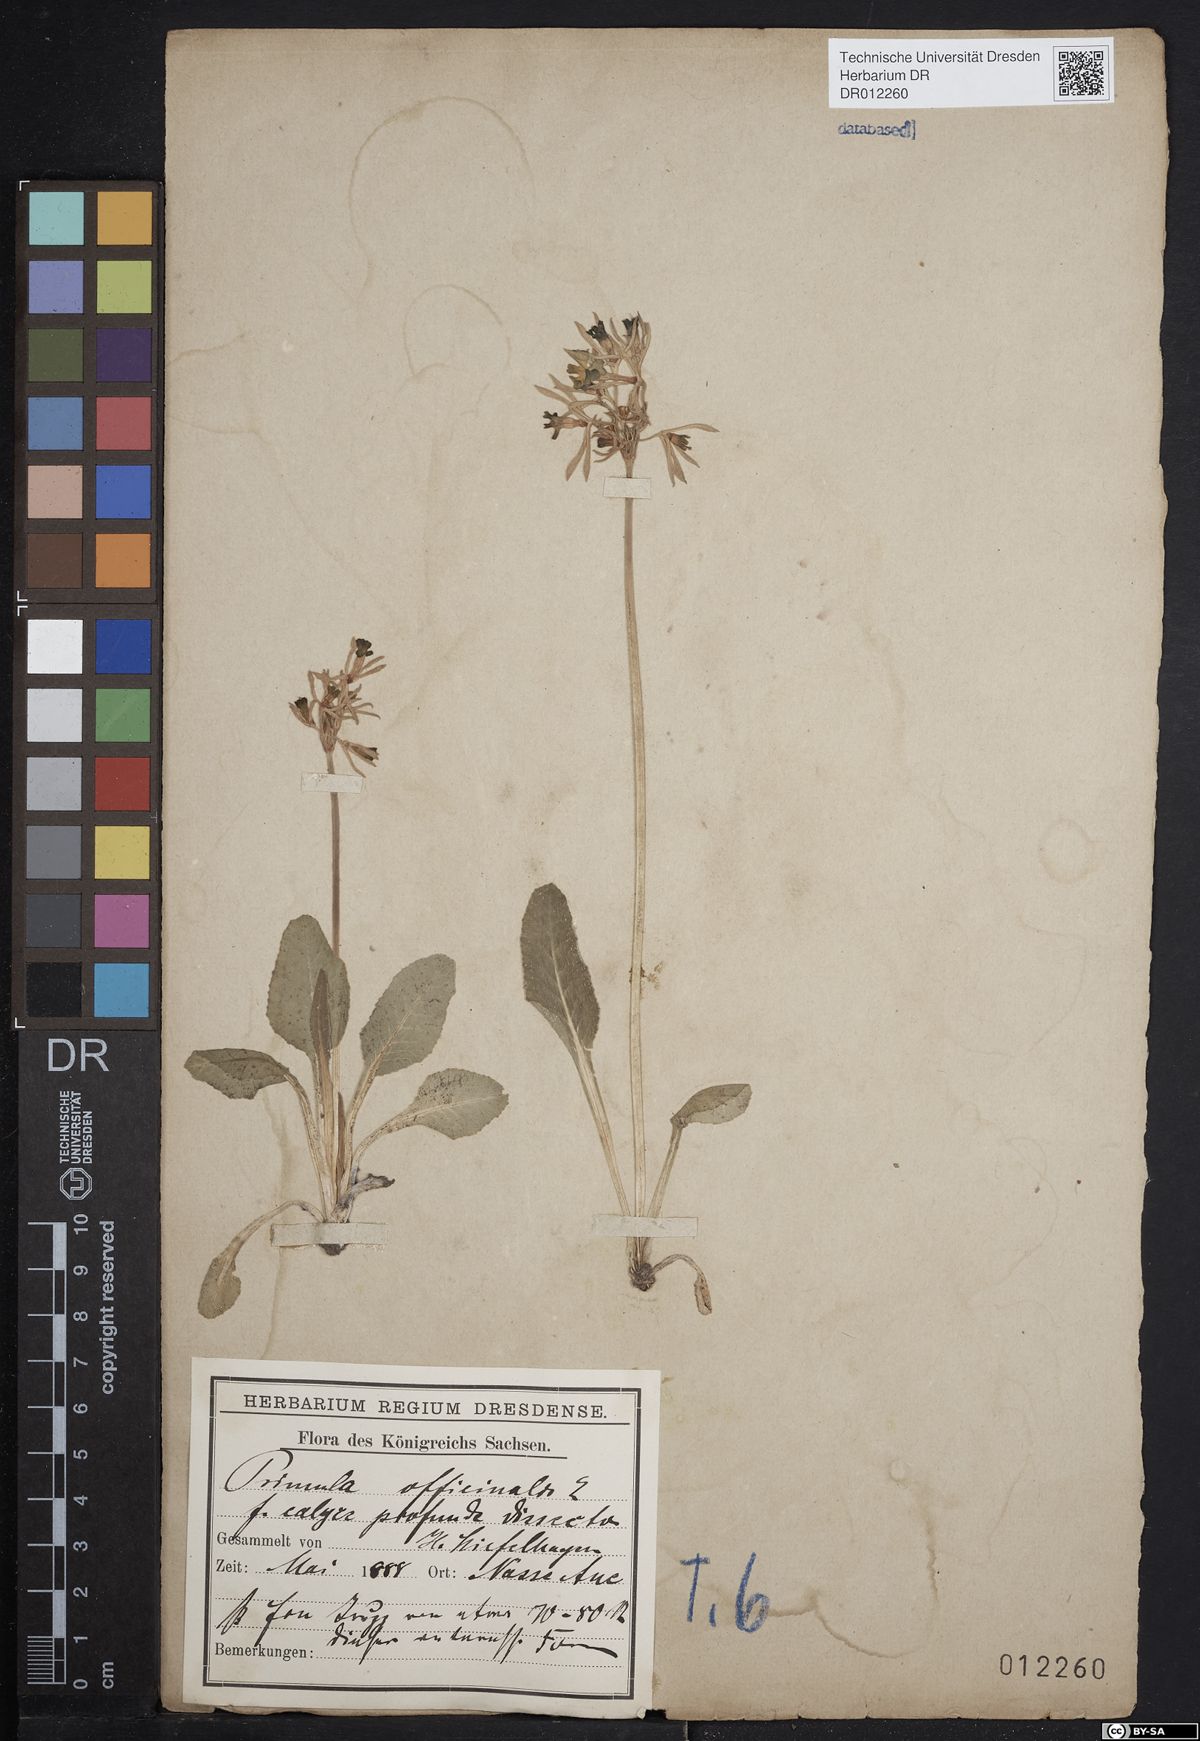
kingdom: Plantae
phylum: Tracheophyta
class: Magnoliopsida
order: Ericales
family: Primulaceae
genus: Primula
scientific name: Primula veris
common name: Cowslip
